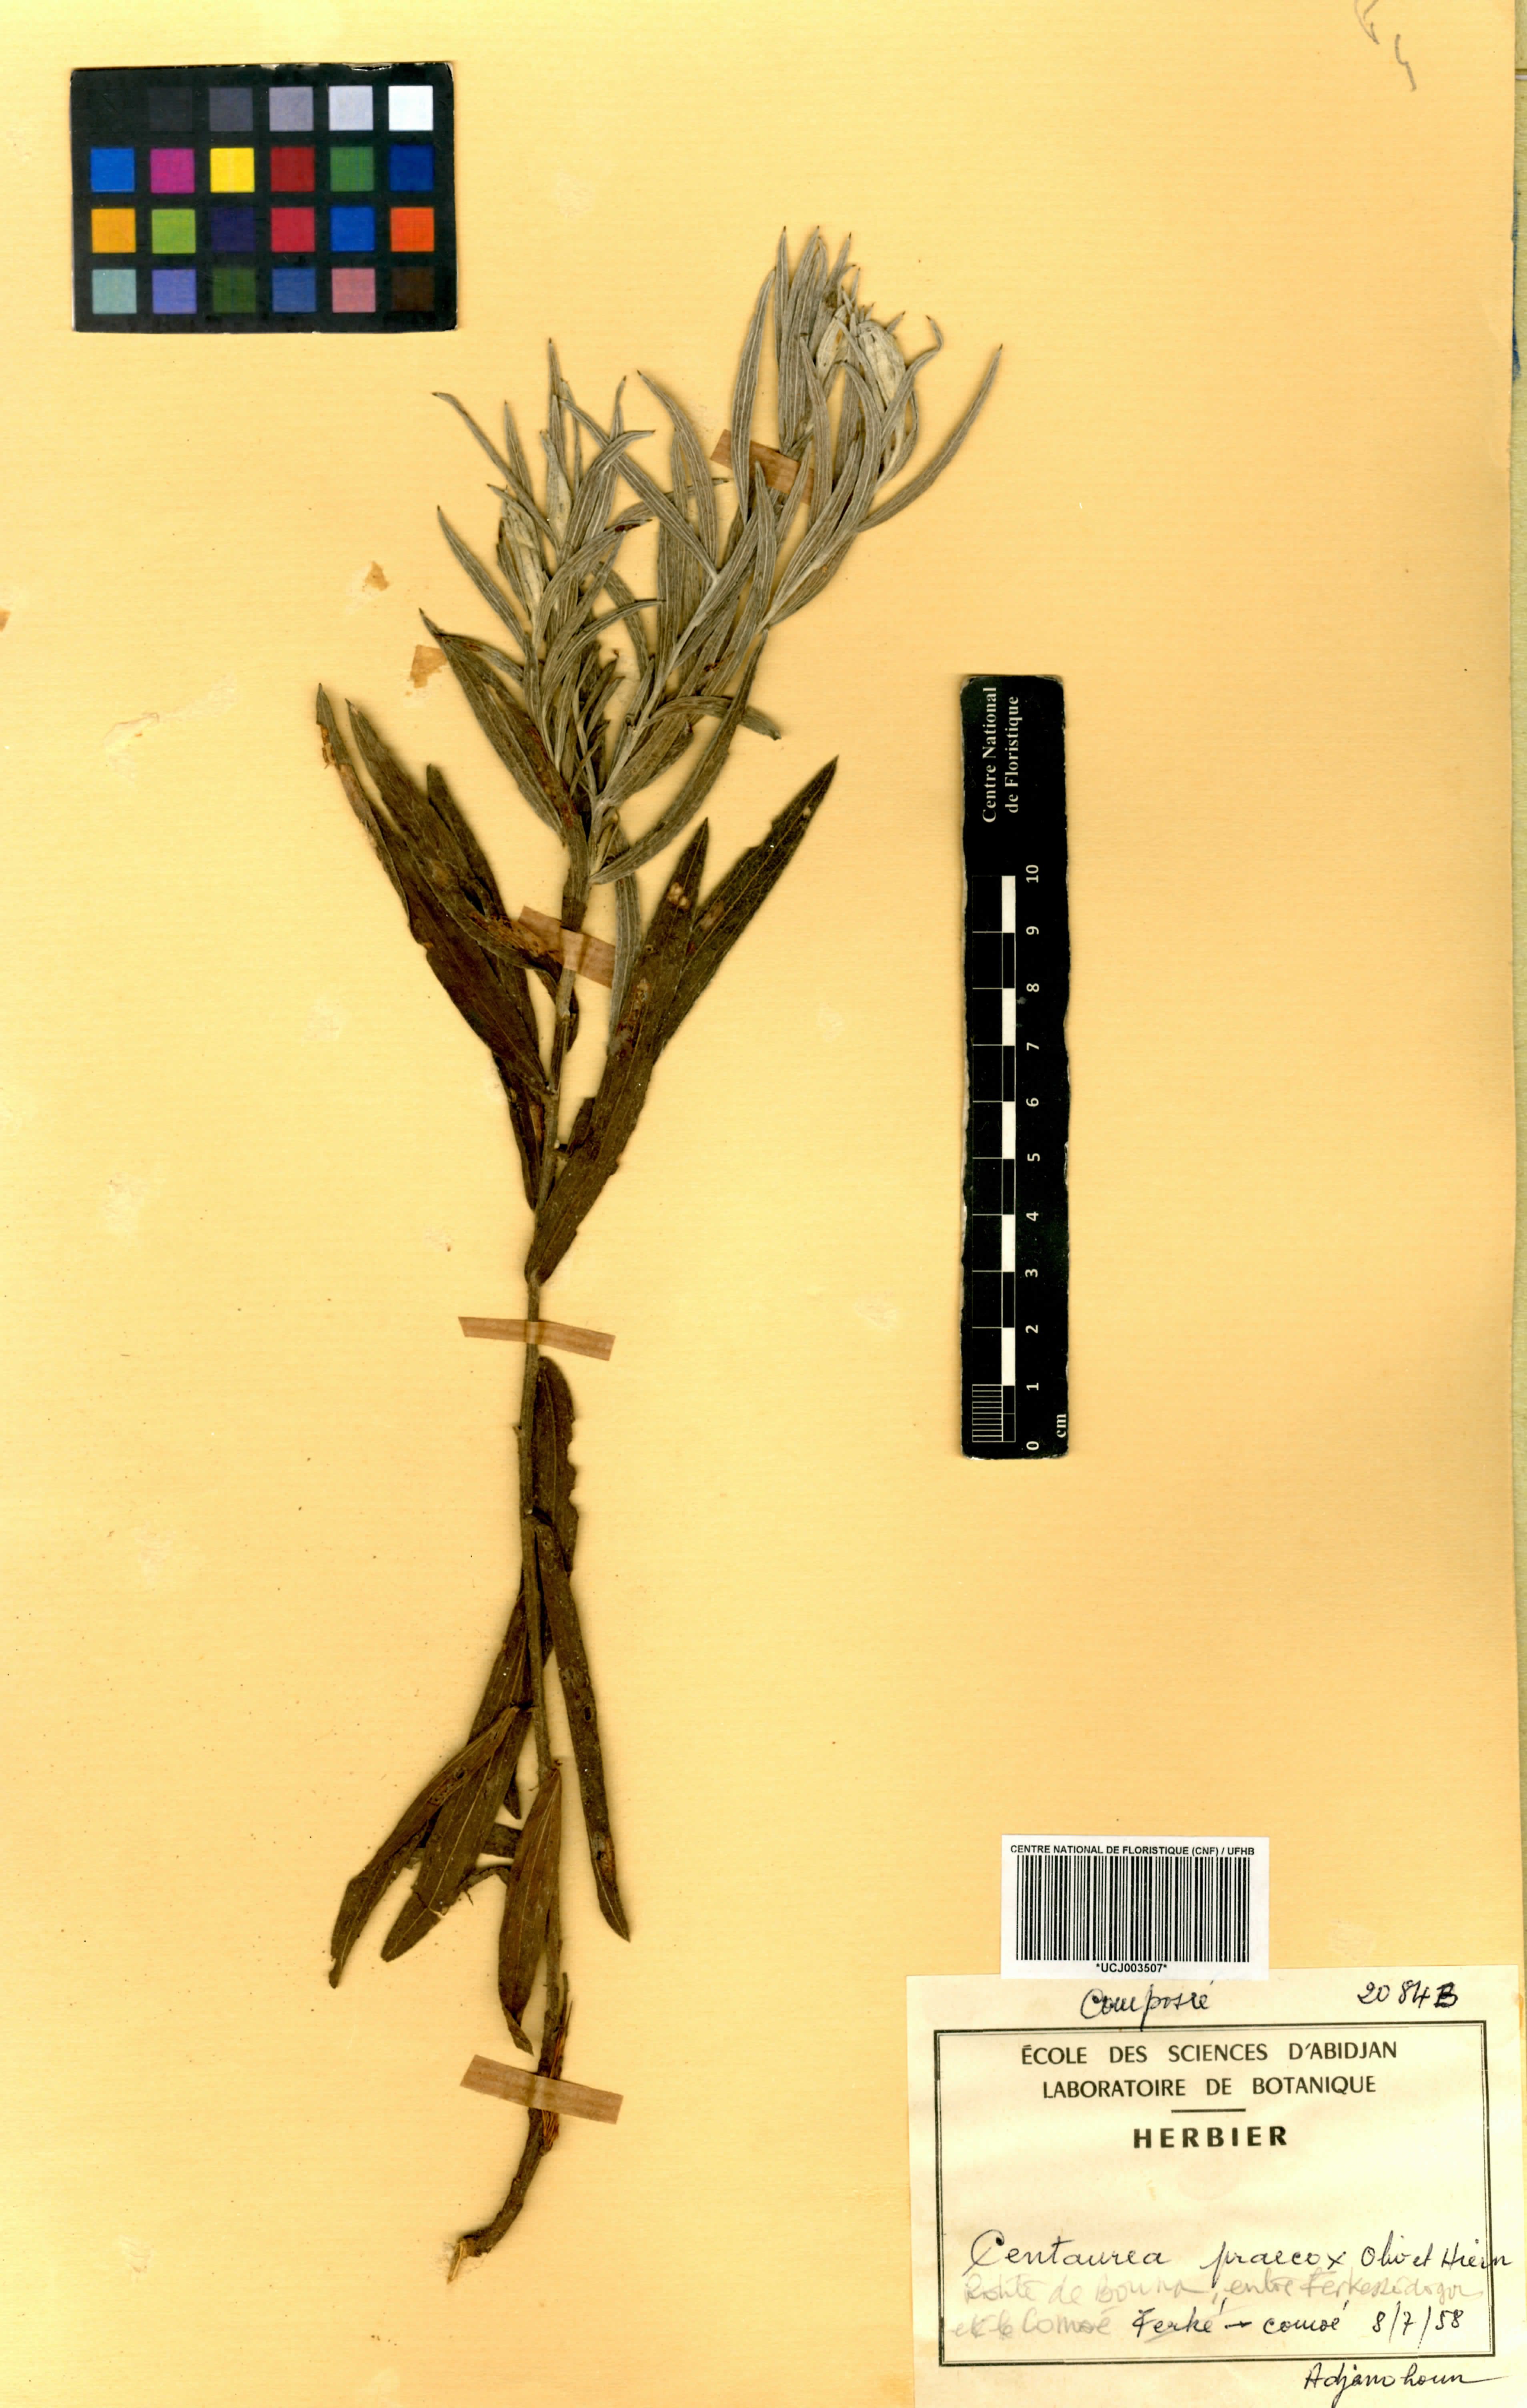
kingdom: Plantae
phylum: Tracheophyta
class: Magnoliopsida
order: Asterales
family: Asteraceae
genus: Centaurea
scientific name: Centaurea praecox
